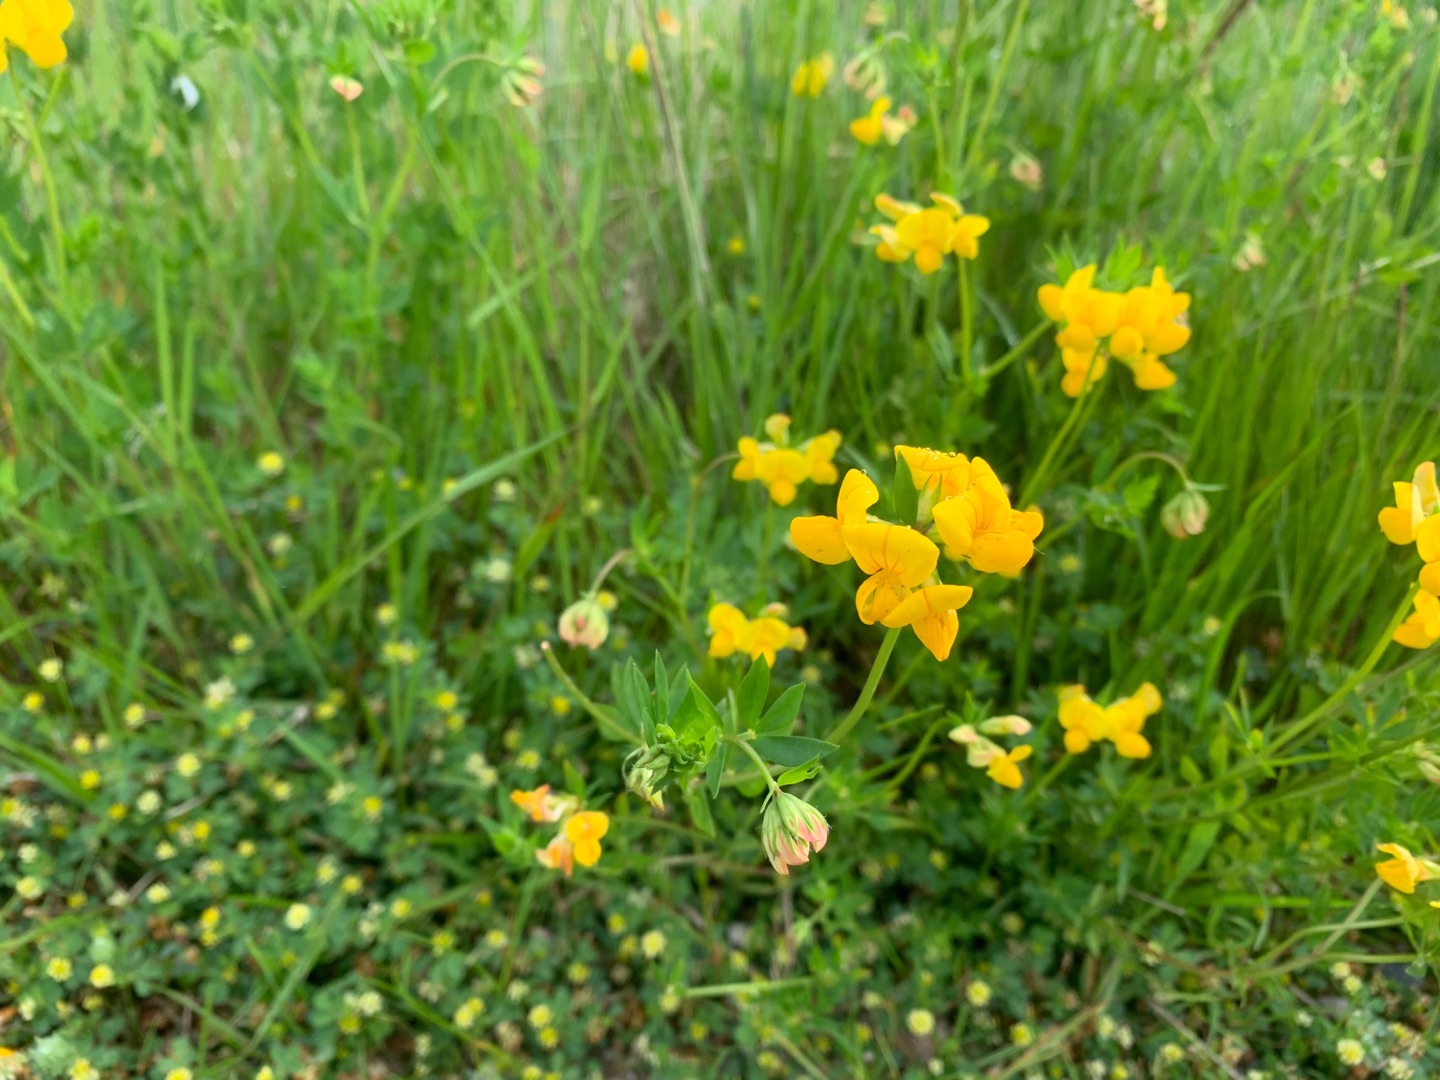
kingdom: Plantae
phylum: Tracheophyta
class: Magnoliopsida
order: Fabales
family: Fabaceae
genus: Lotus
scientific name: Lotus corniculatus
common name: Almindelig kællingetand
